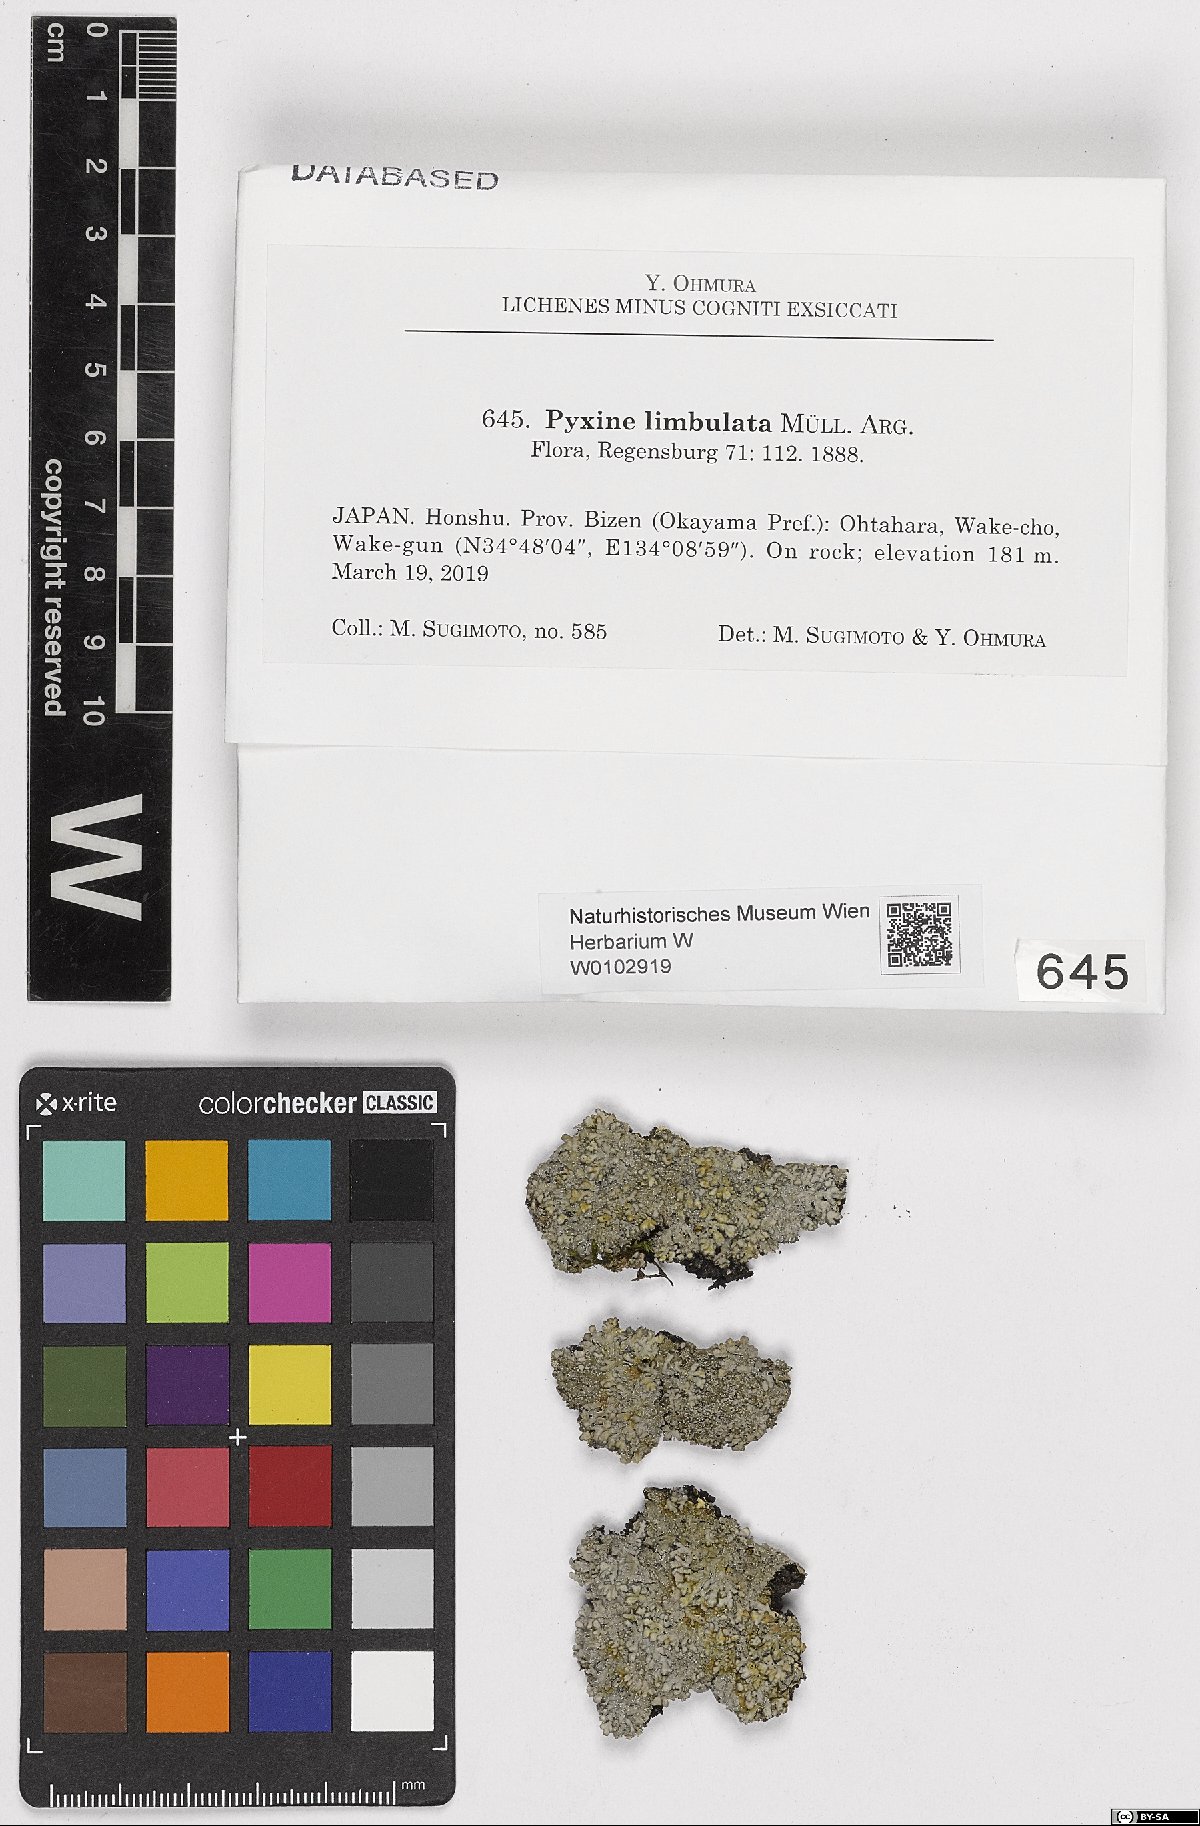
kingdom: Fungi
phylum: Ascomycota
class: Lecanoromycetes
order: Caliciales
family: Caliciaceae
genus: Pyxine
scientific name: Pyxine limbulata
